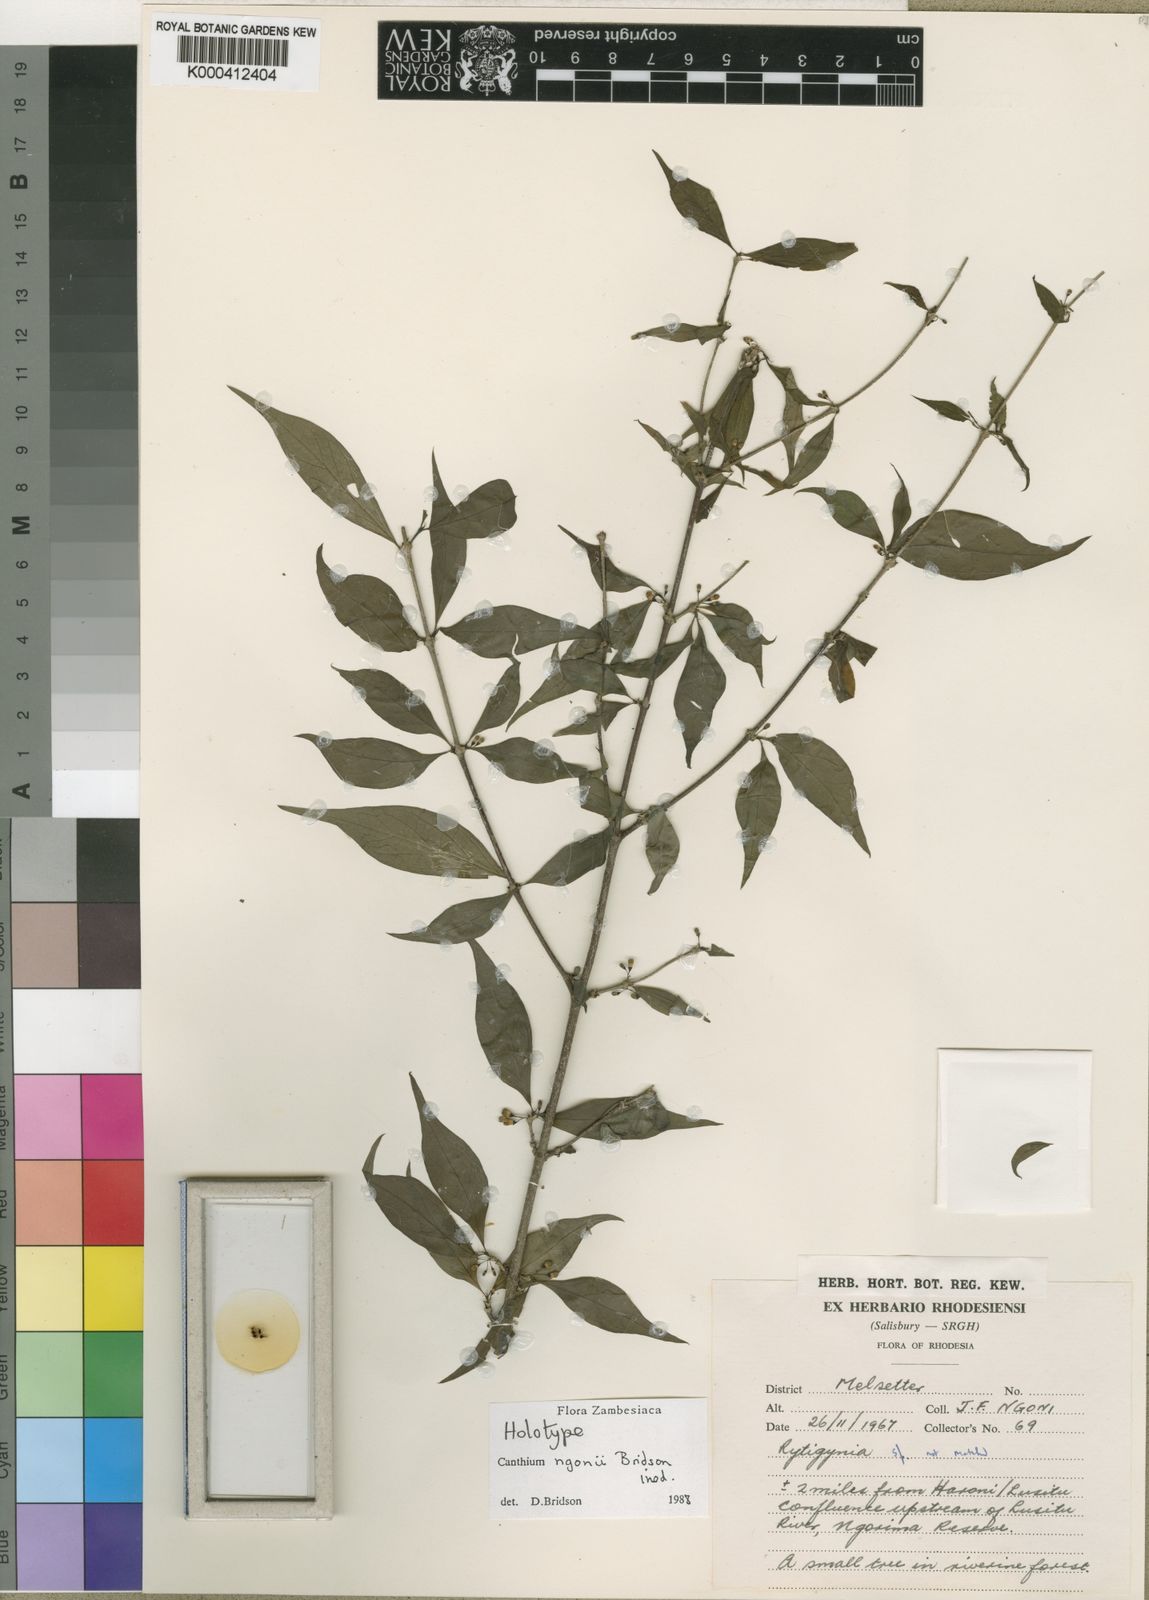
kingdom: Plantae
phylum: Tracheophyta
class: Magnoliopsida
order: Gentianales
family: Rubiaceae
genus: Afrocanthium
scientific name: Afrocanthium ngonii
